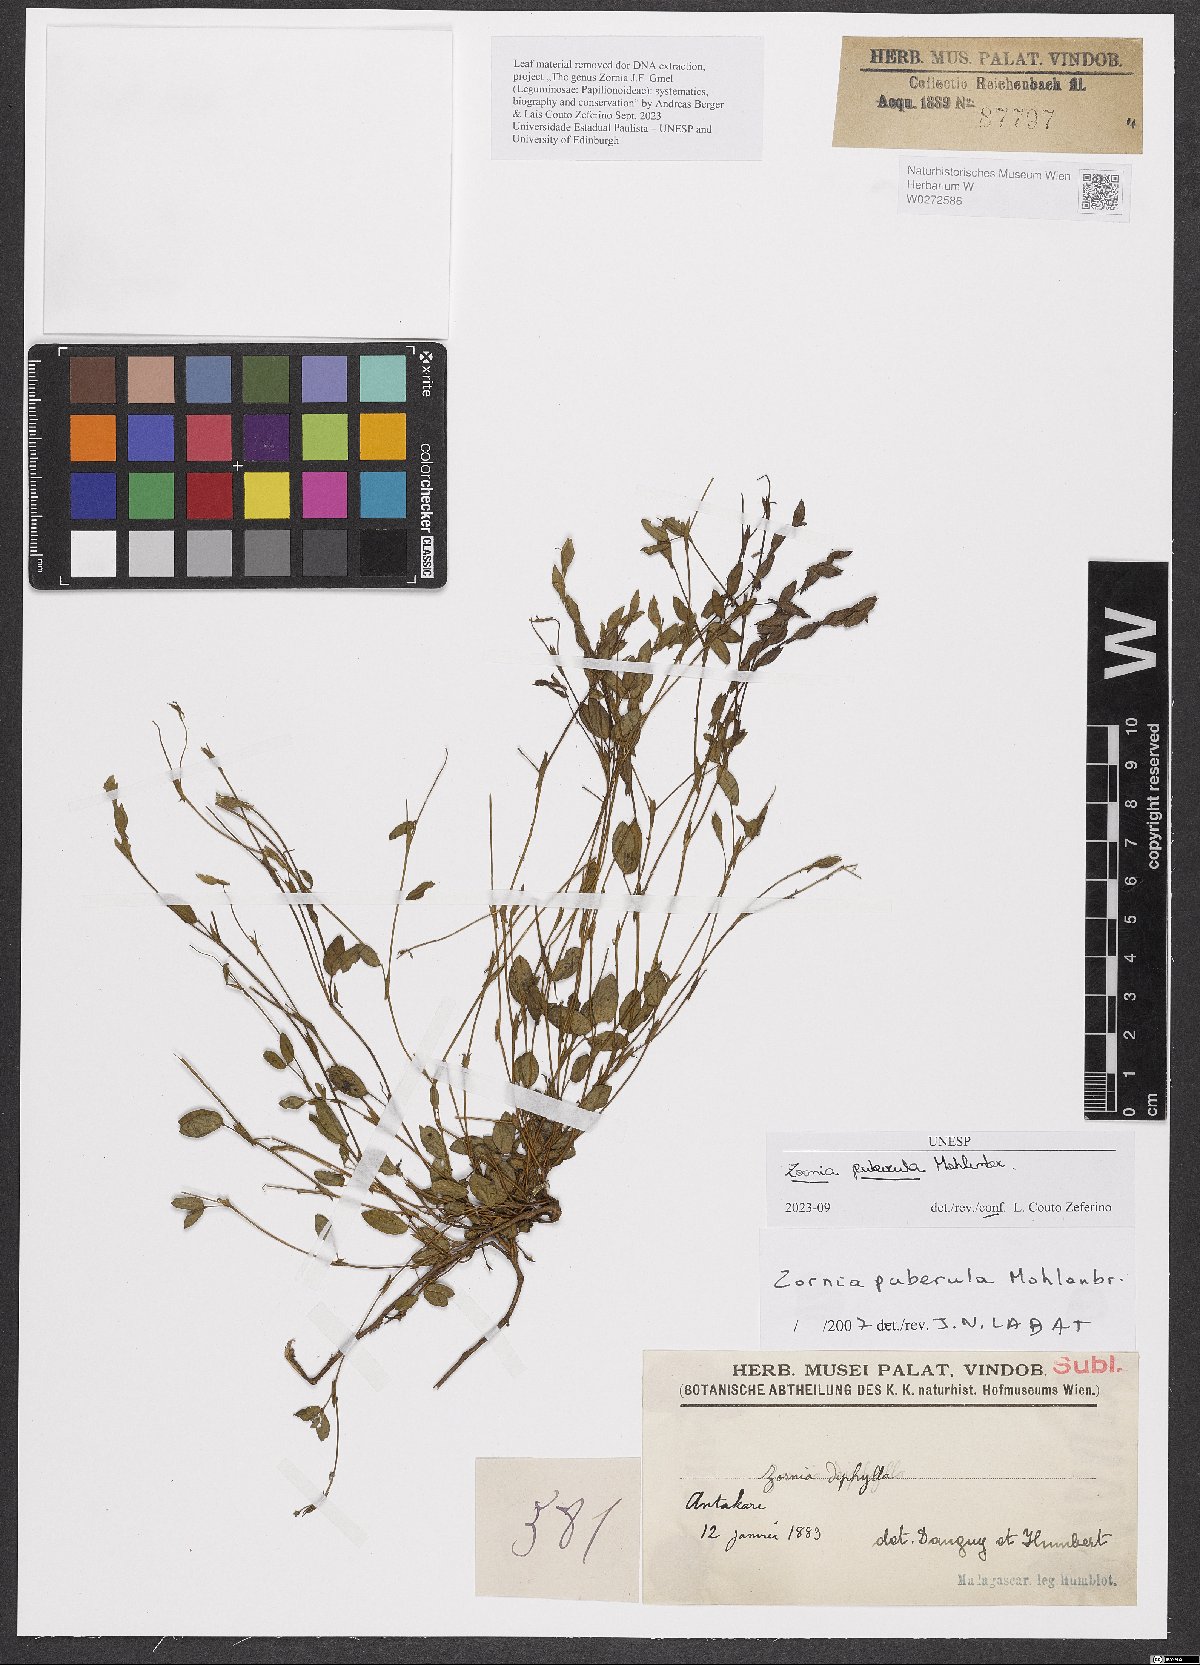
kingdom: Plantae
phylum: Tracheophyta
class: Magnoliopsida
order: Fabales
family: Fabaceae
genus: Zornia
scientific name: Zornia puberula
